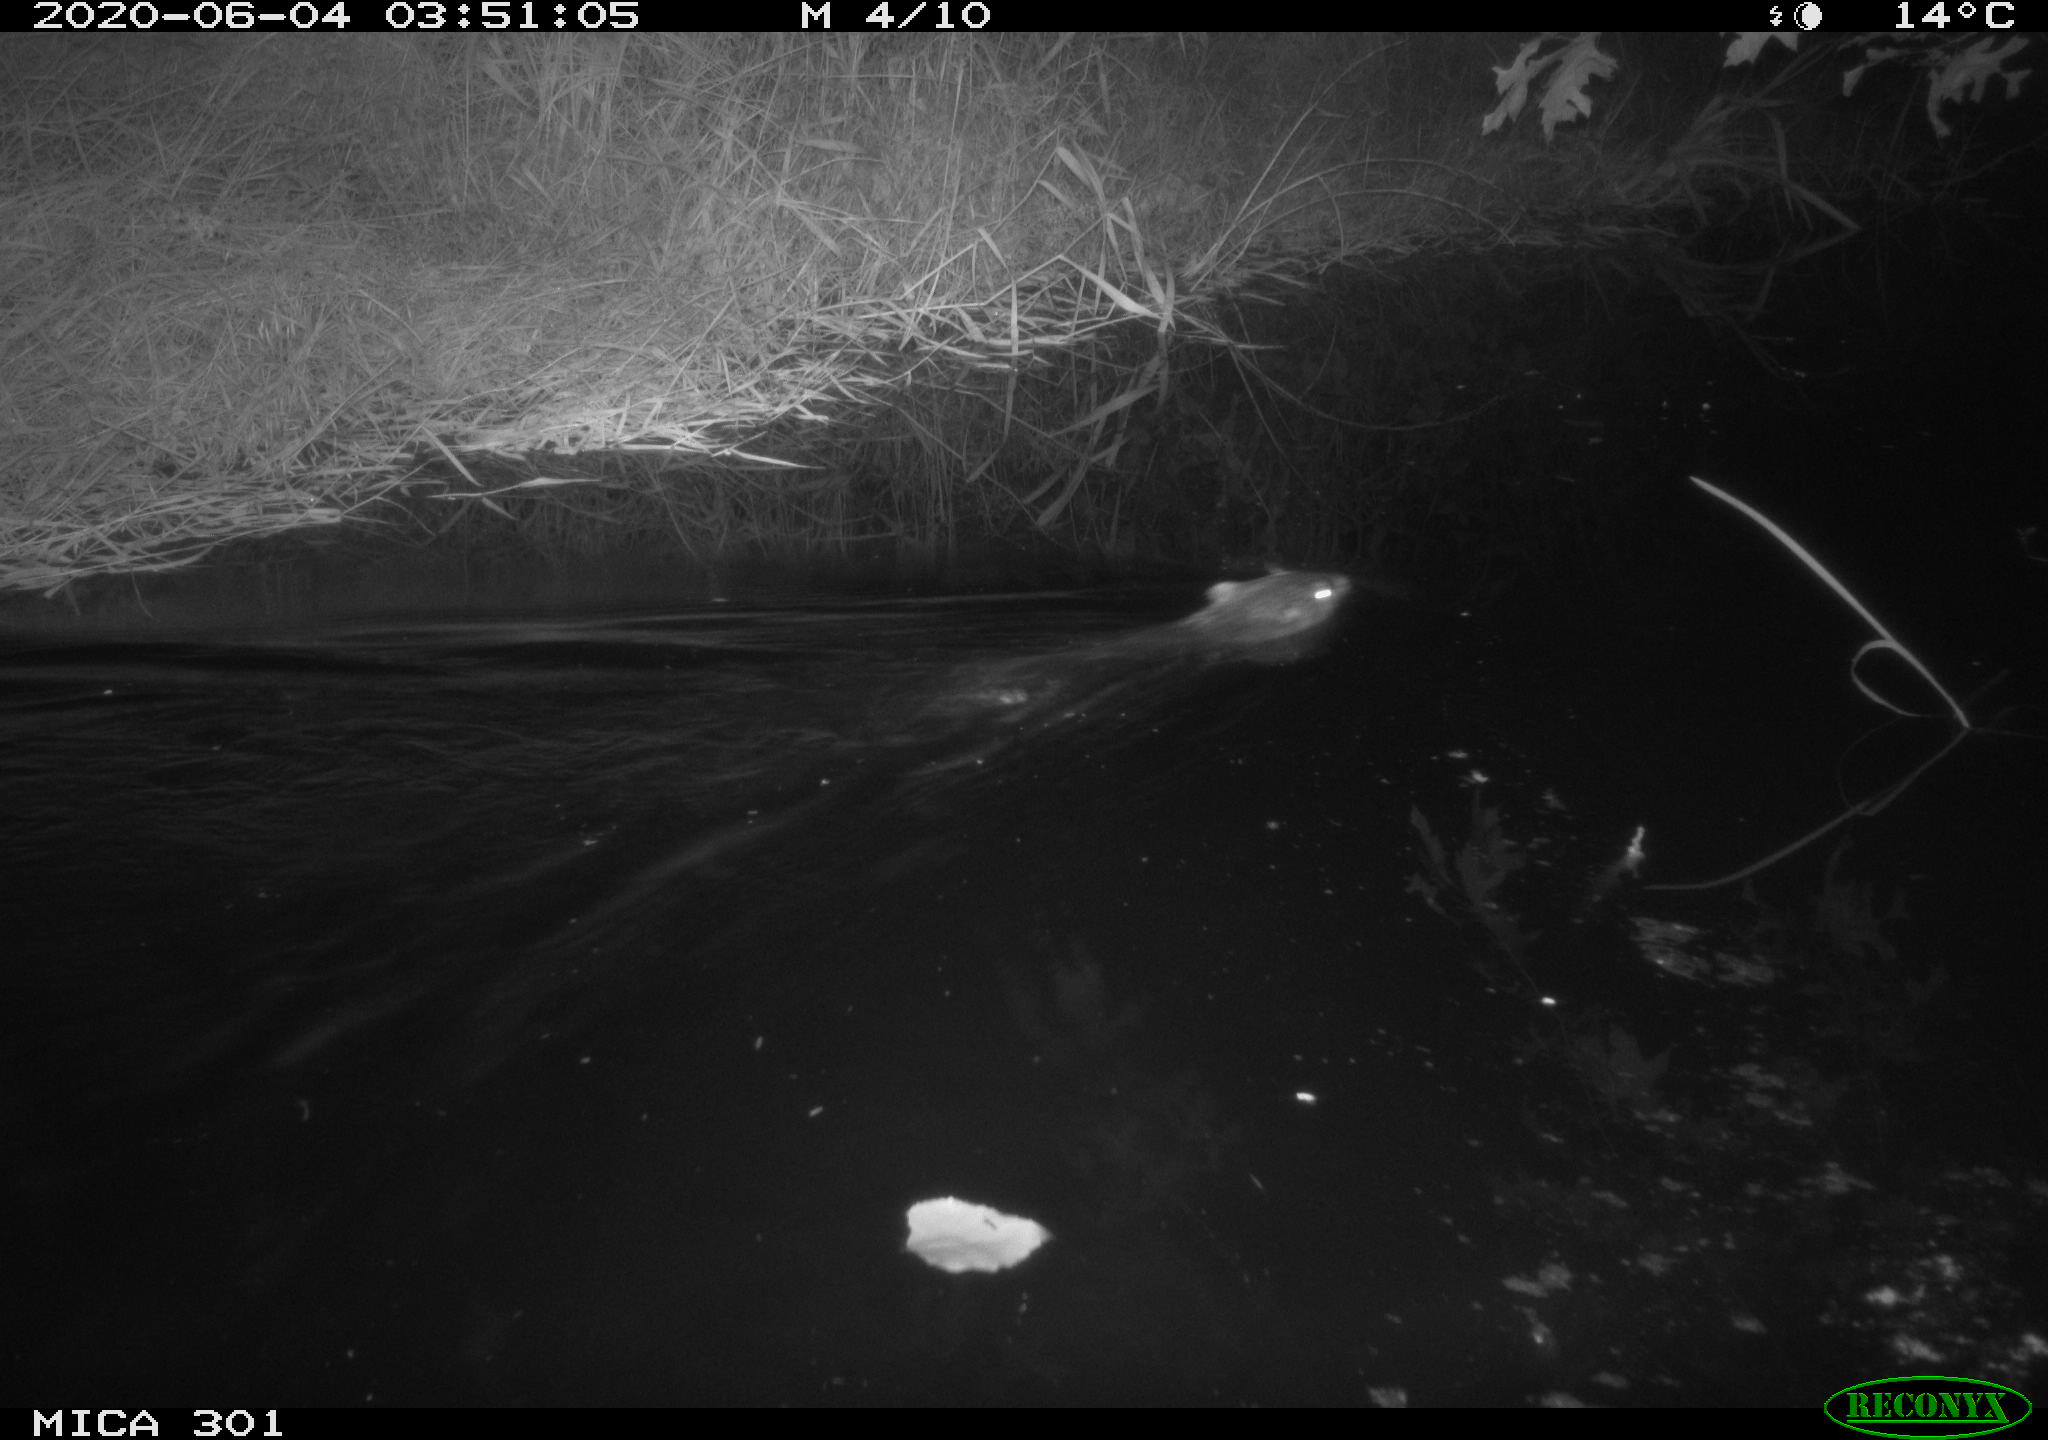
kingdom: Animalia
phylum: Chordata
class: Mammalia
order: Rodentia
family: Castoridae
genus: Castor
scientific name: Castor fiber
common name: Eurasian beaver
